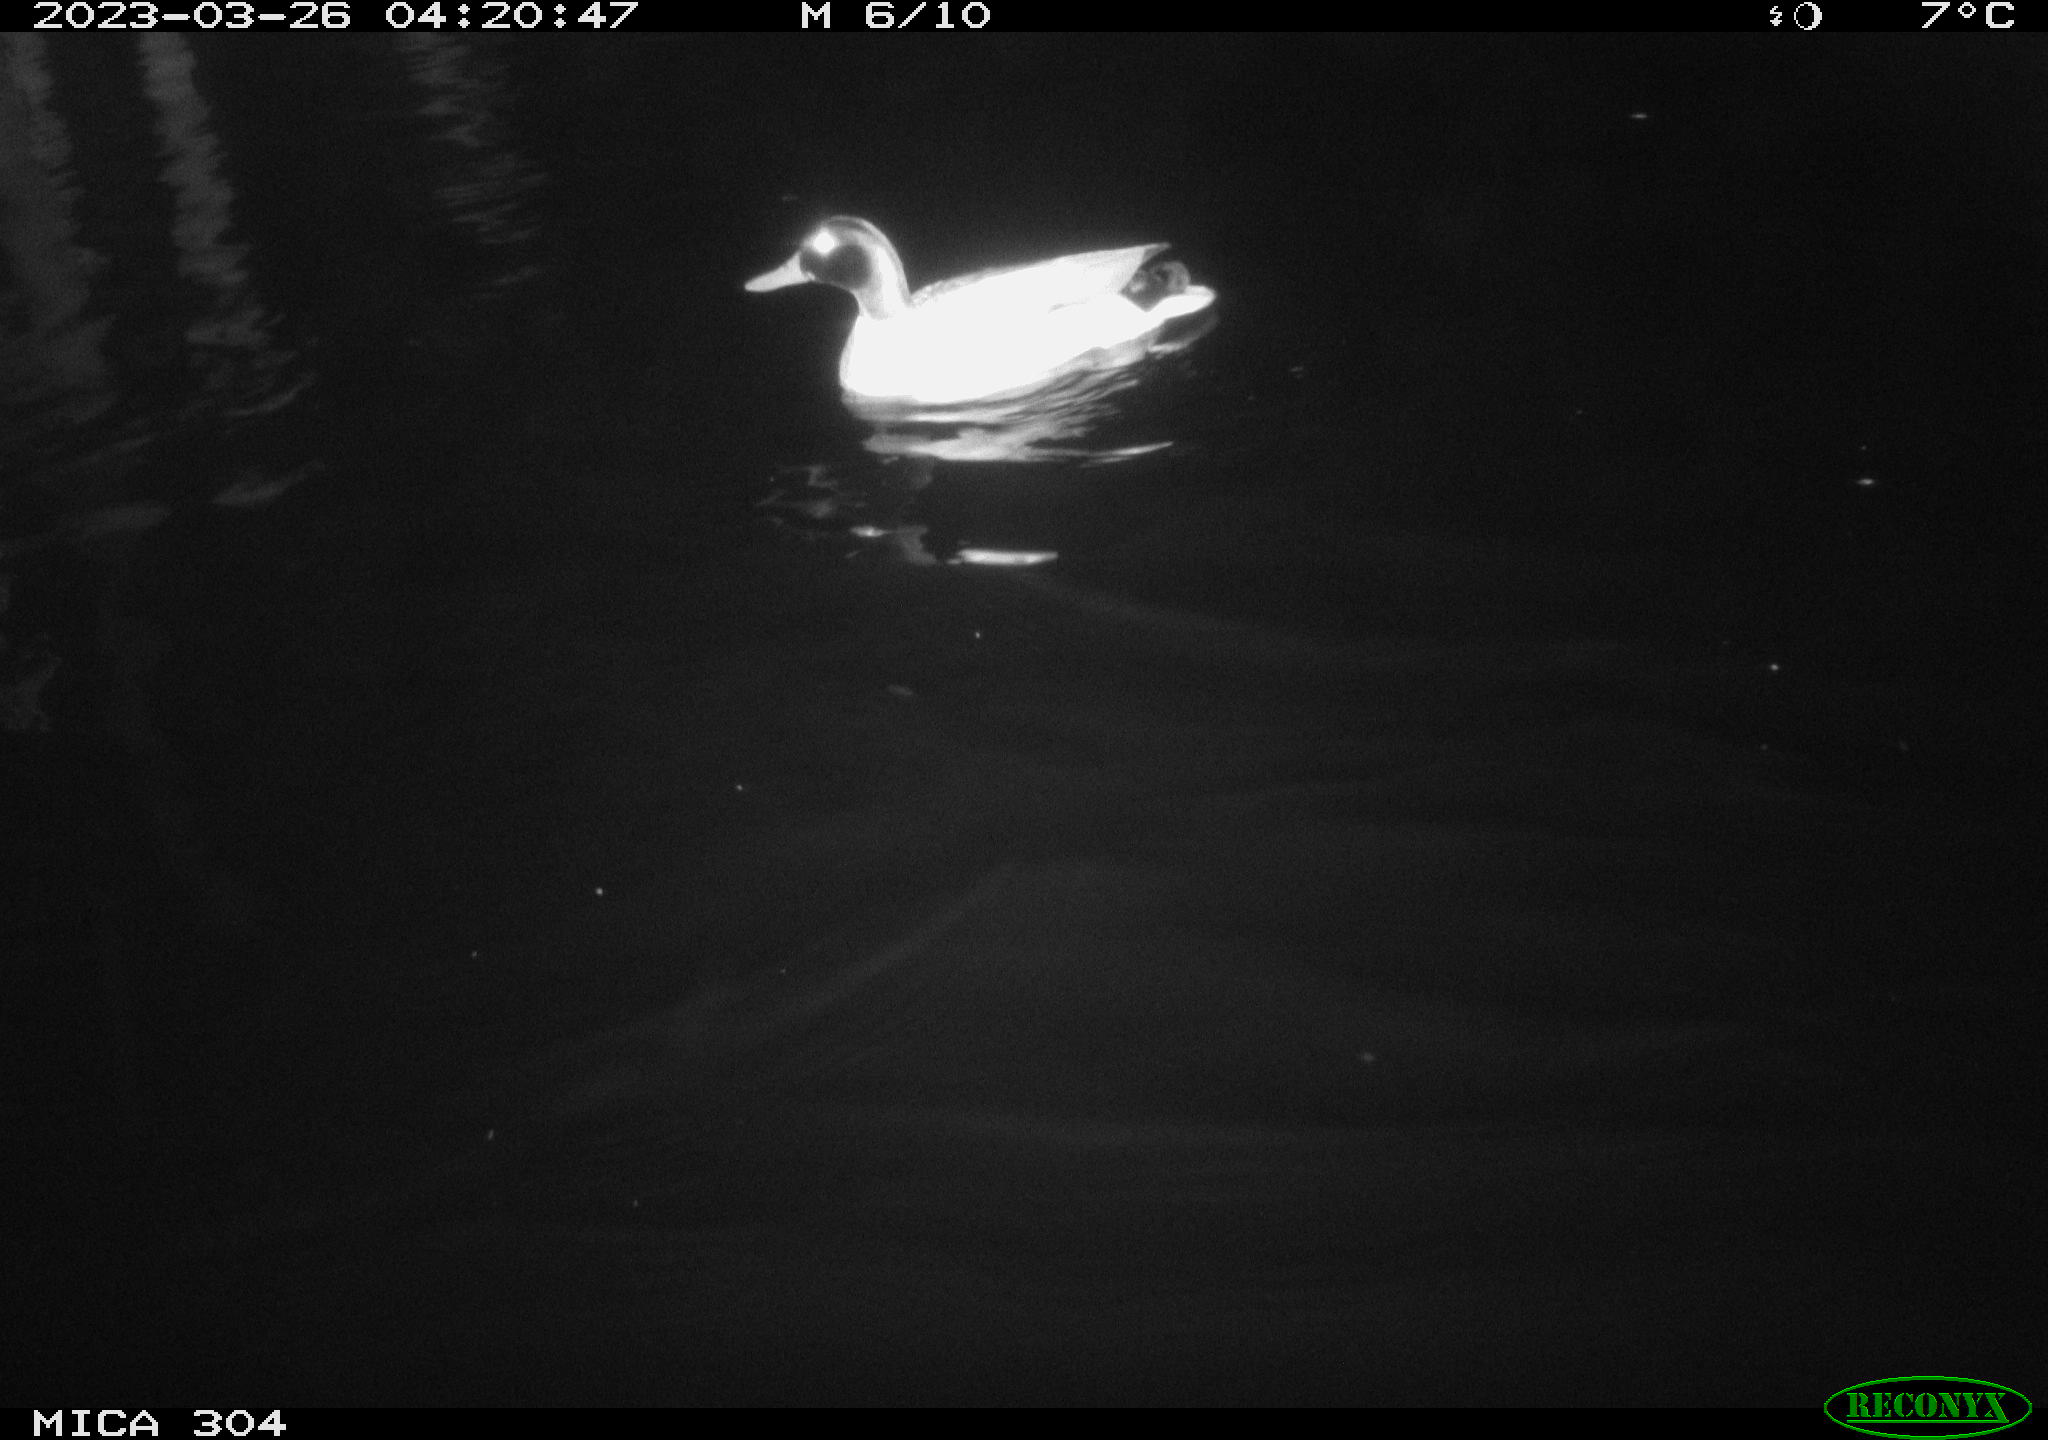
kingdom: Animalia
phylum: Chordata
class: Aves
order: Anseriformes
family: Anatidae
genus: Anas
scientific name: Anas
